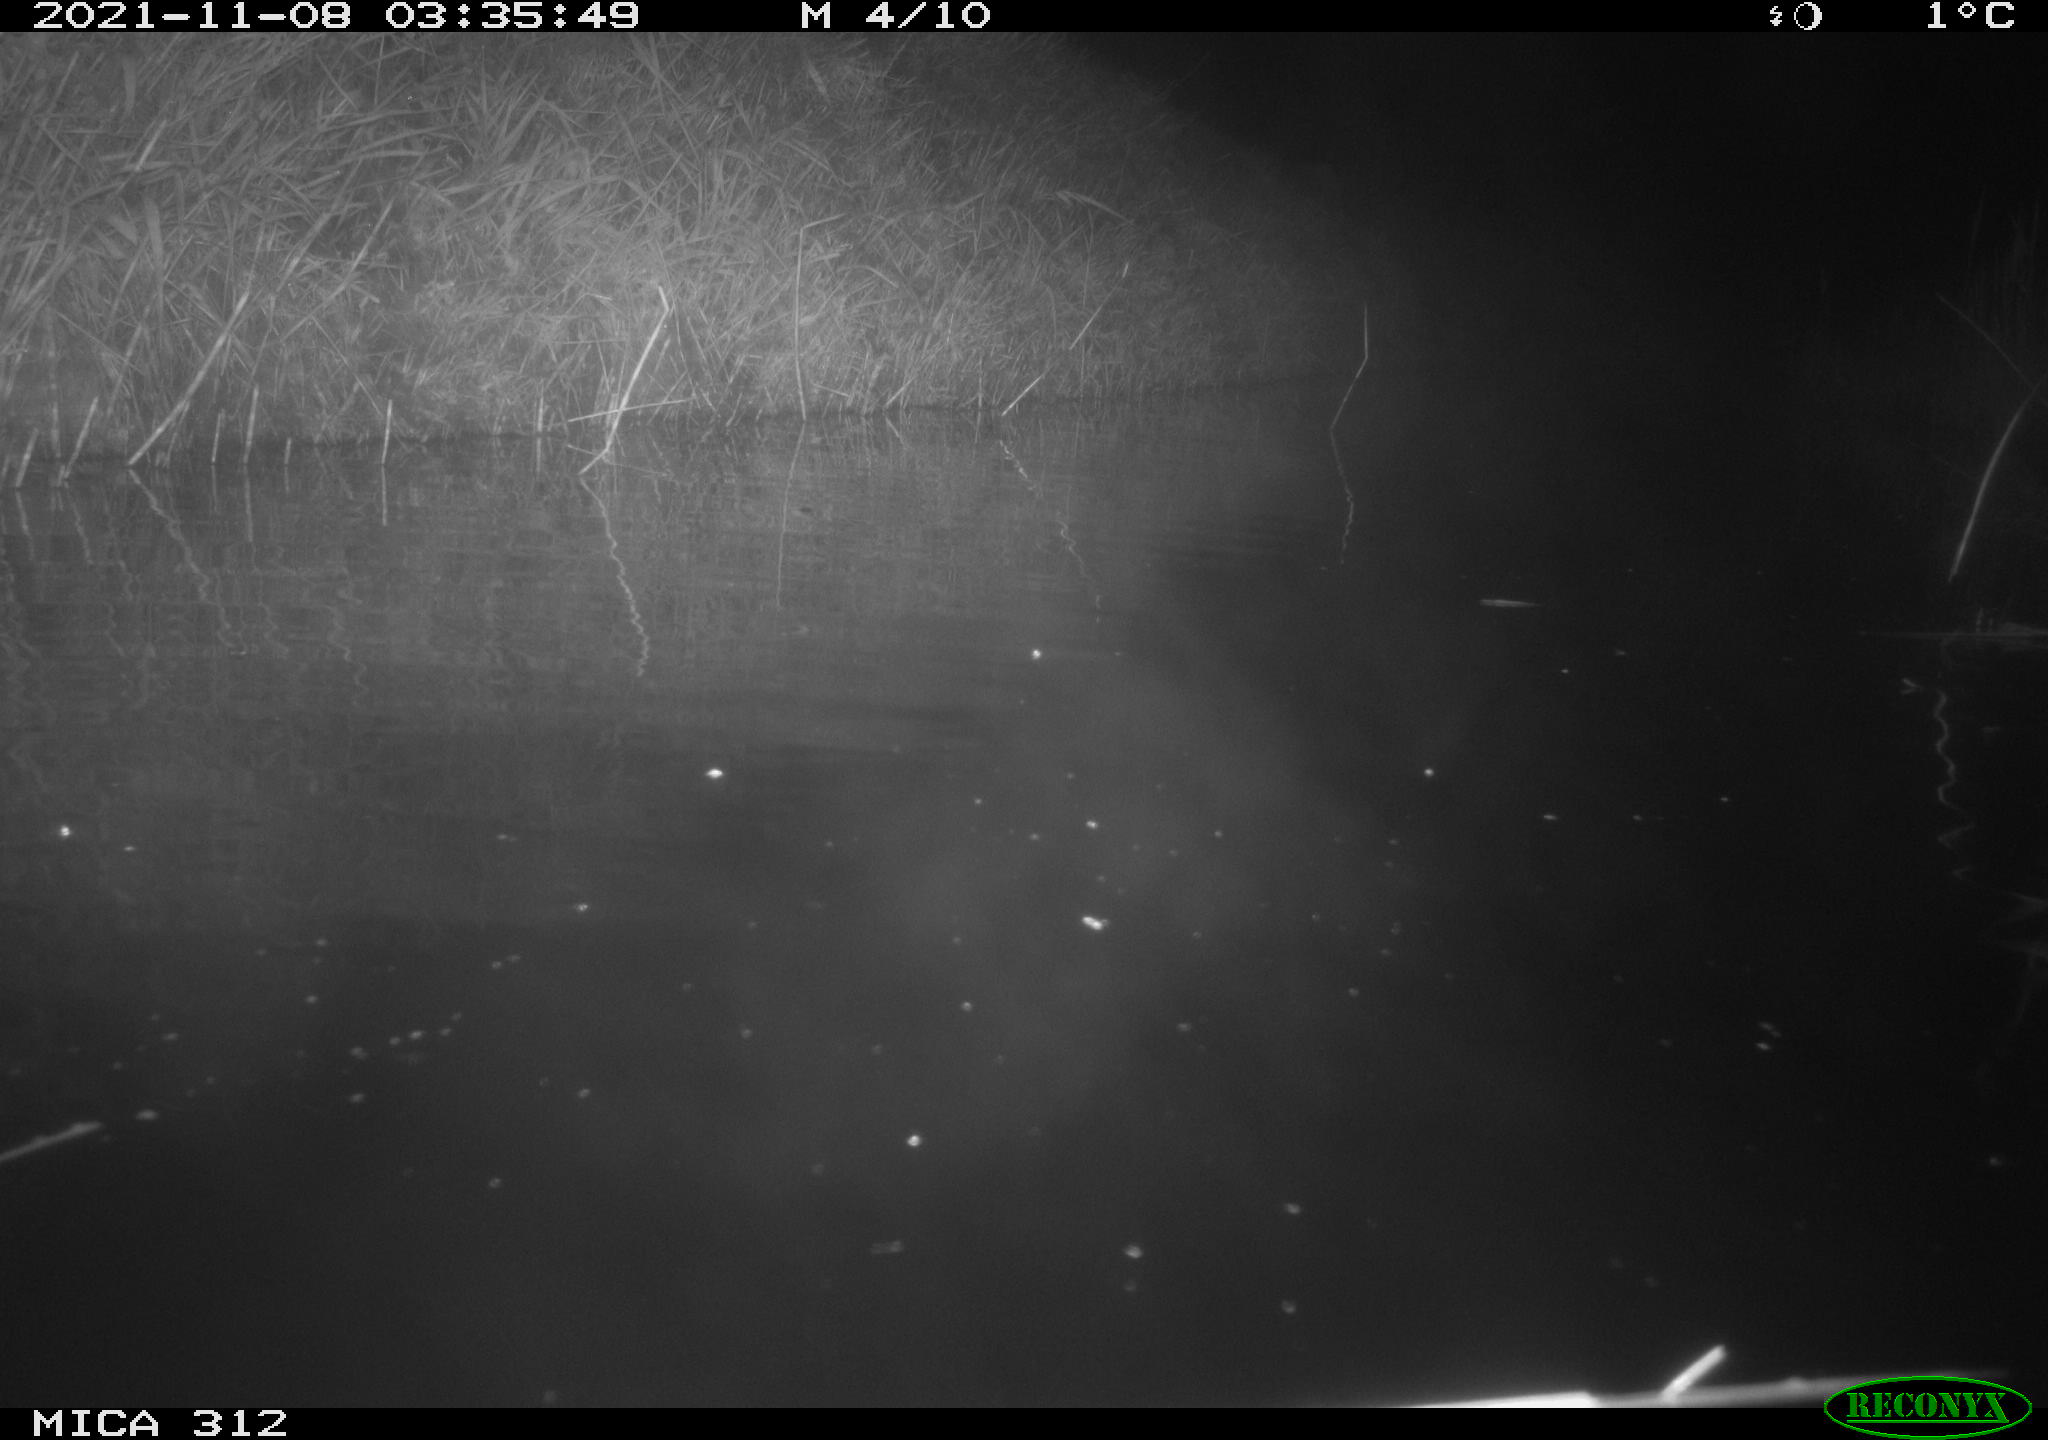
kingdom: Animalia
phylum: Chordata
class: Mammalia
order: Rodentia
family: Muridae
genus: Rattus
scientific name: Rattus norvegicus
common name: Brown rat
